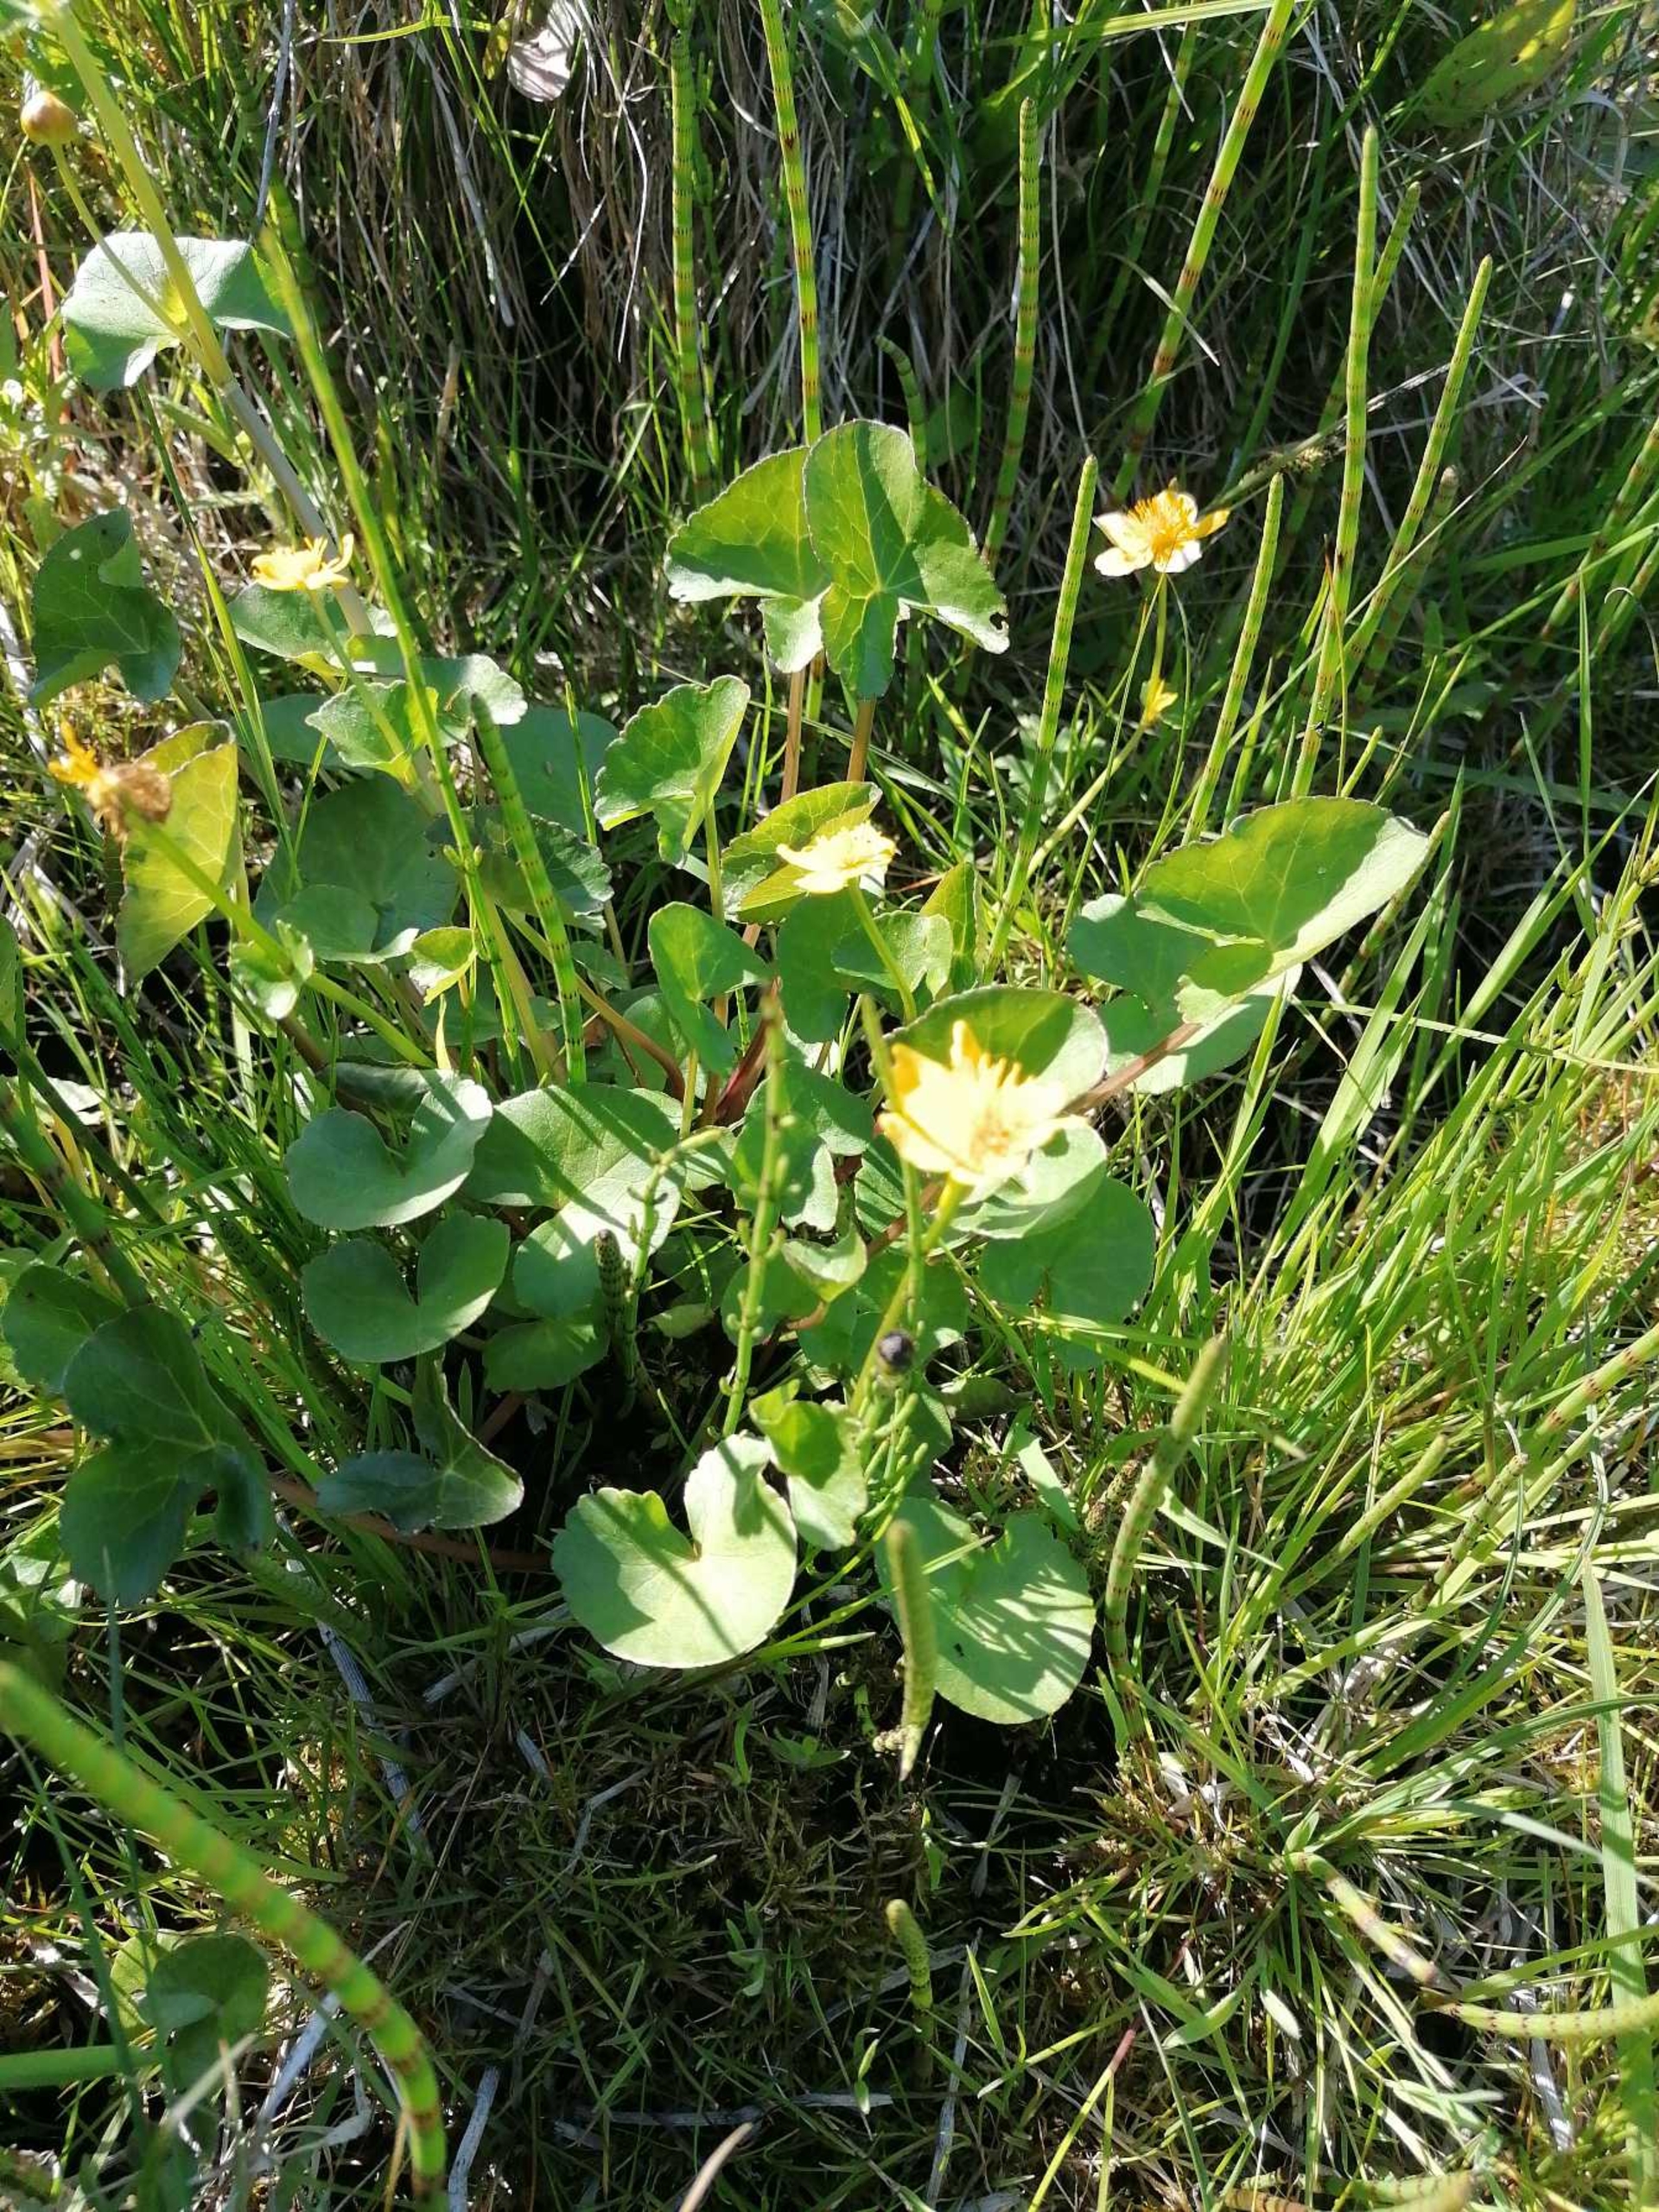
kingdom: Plantae
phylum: Tracheophyta
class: Magnoliopsida
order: Ranunculales
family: Ranunculaceae
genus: Caltha
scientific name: Caltha palustris
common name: Eng-kabbeleje
